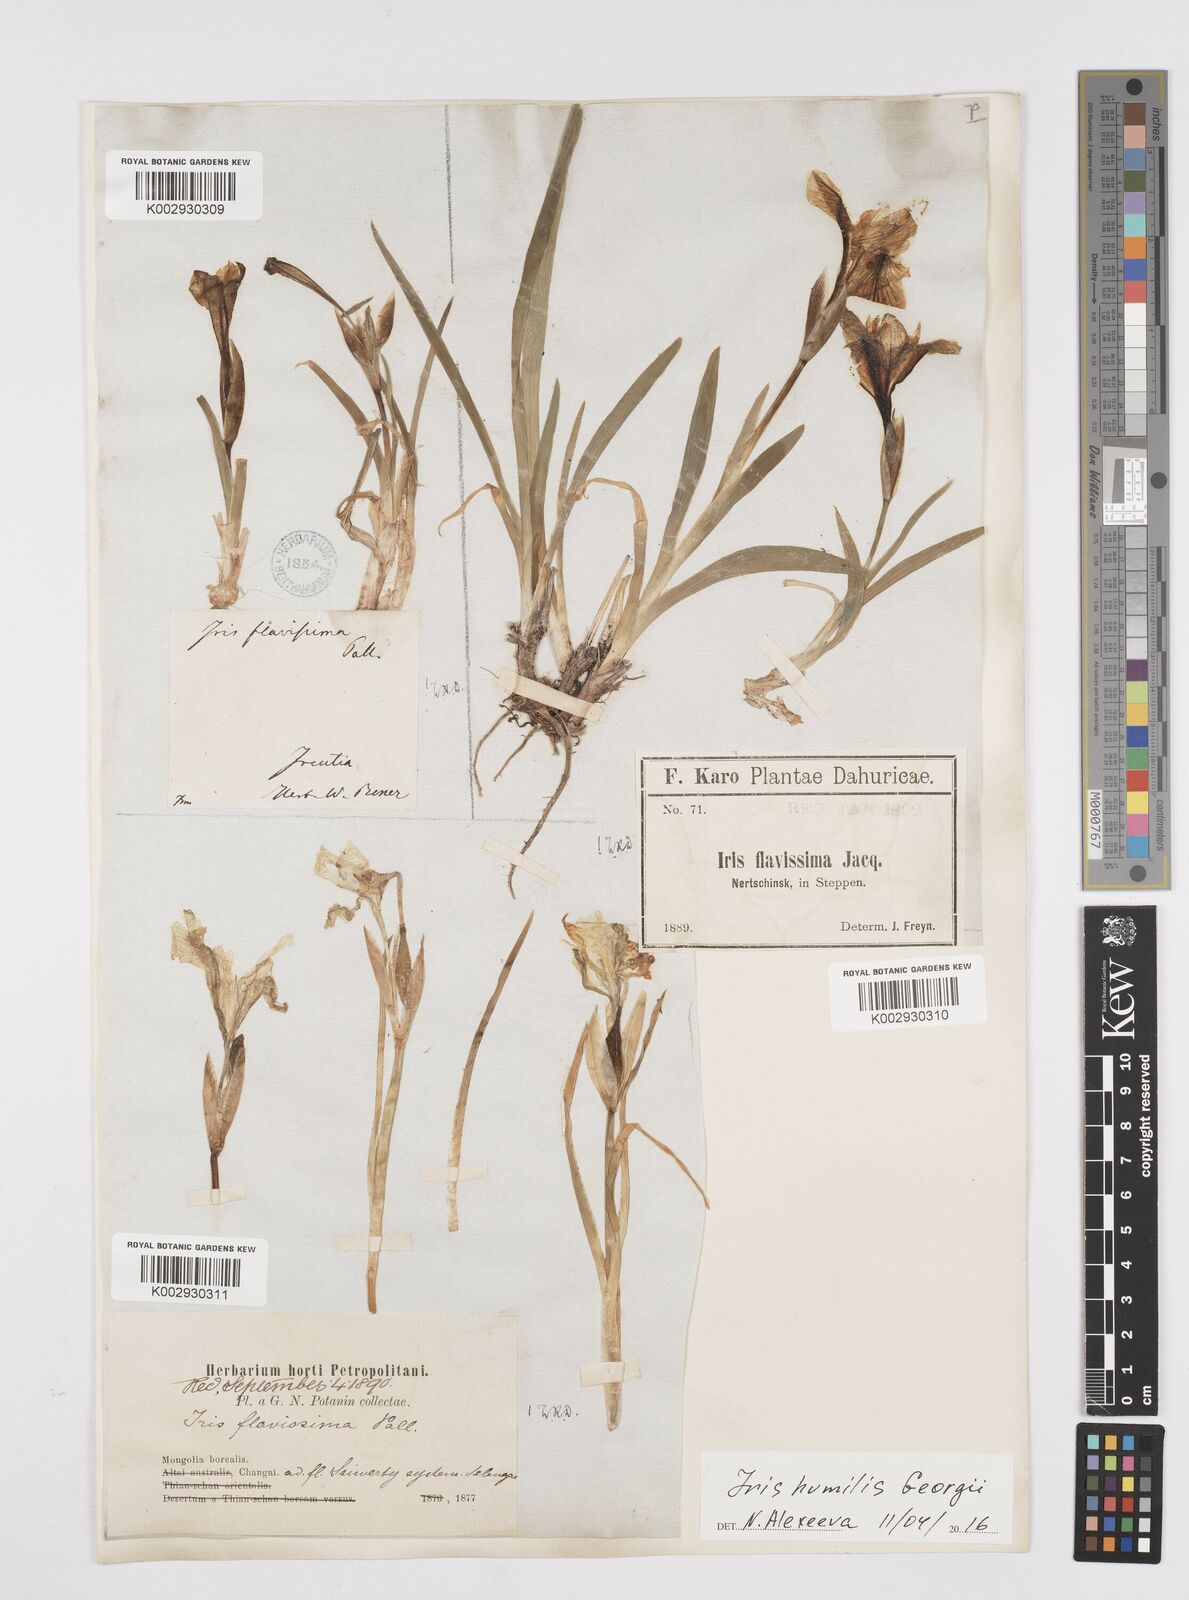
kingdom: Plantae
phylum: Tracheophyta
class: Liliopsida
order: Asparagales
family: Iridaceae
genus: Iris
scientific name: Iris humilis
